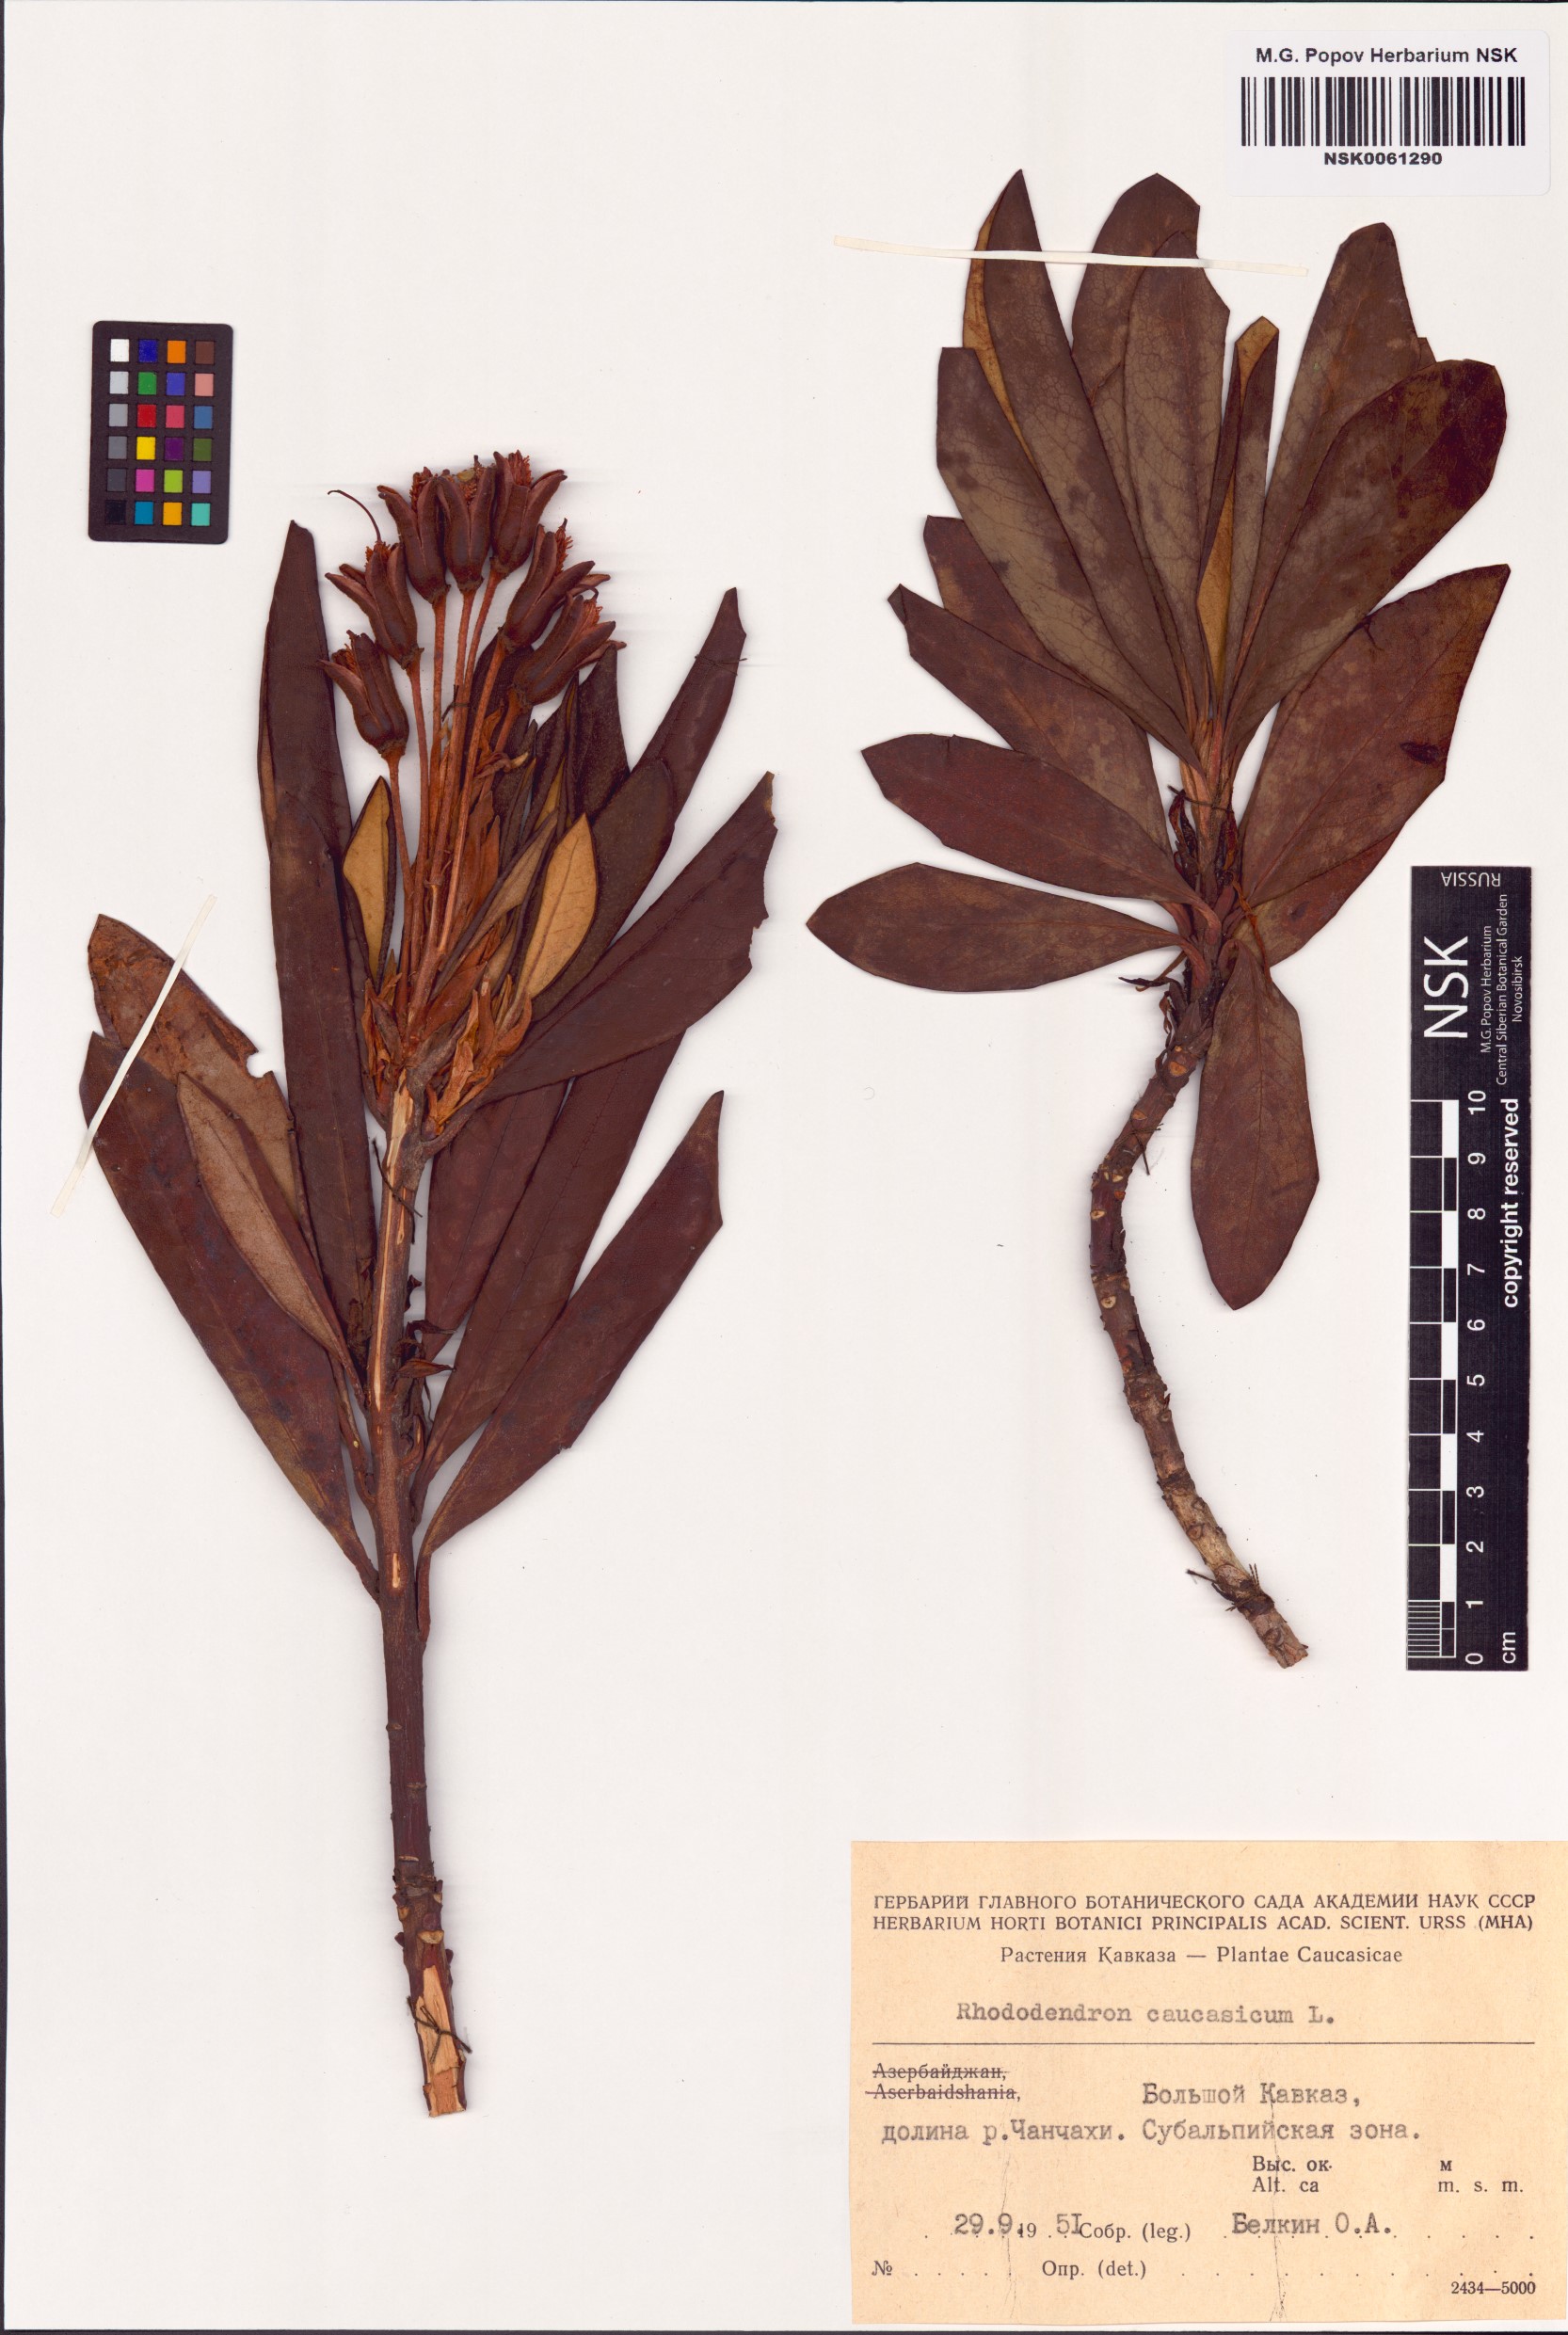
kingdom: Plantae
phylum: Tracheophyta
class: Magnoliopsida
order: Ericales
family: Ericaceae
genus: Rhododendron
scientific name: Rhododendron caucasicum
